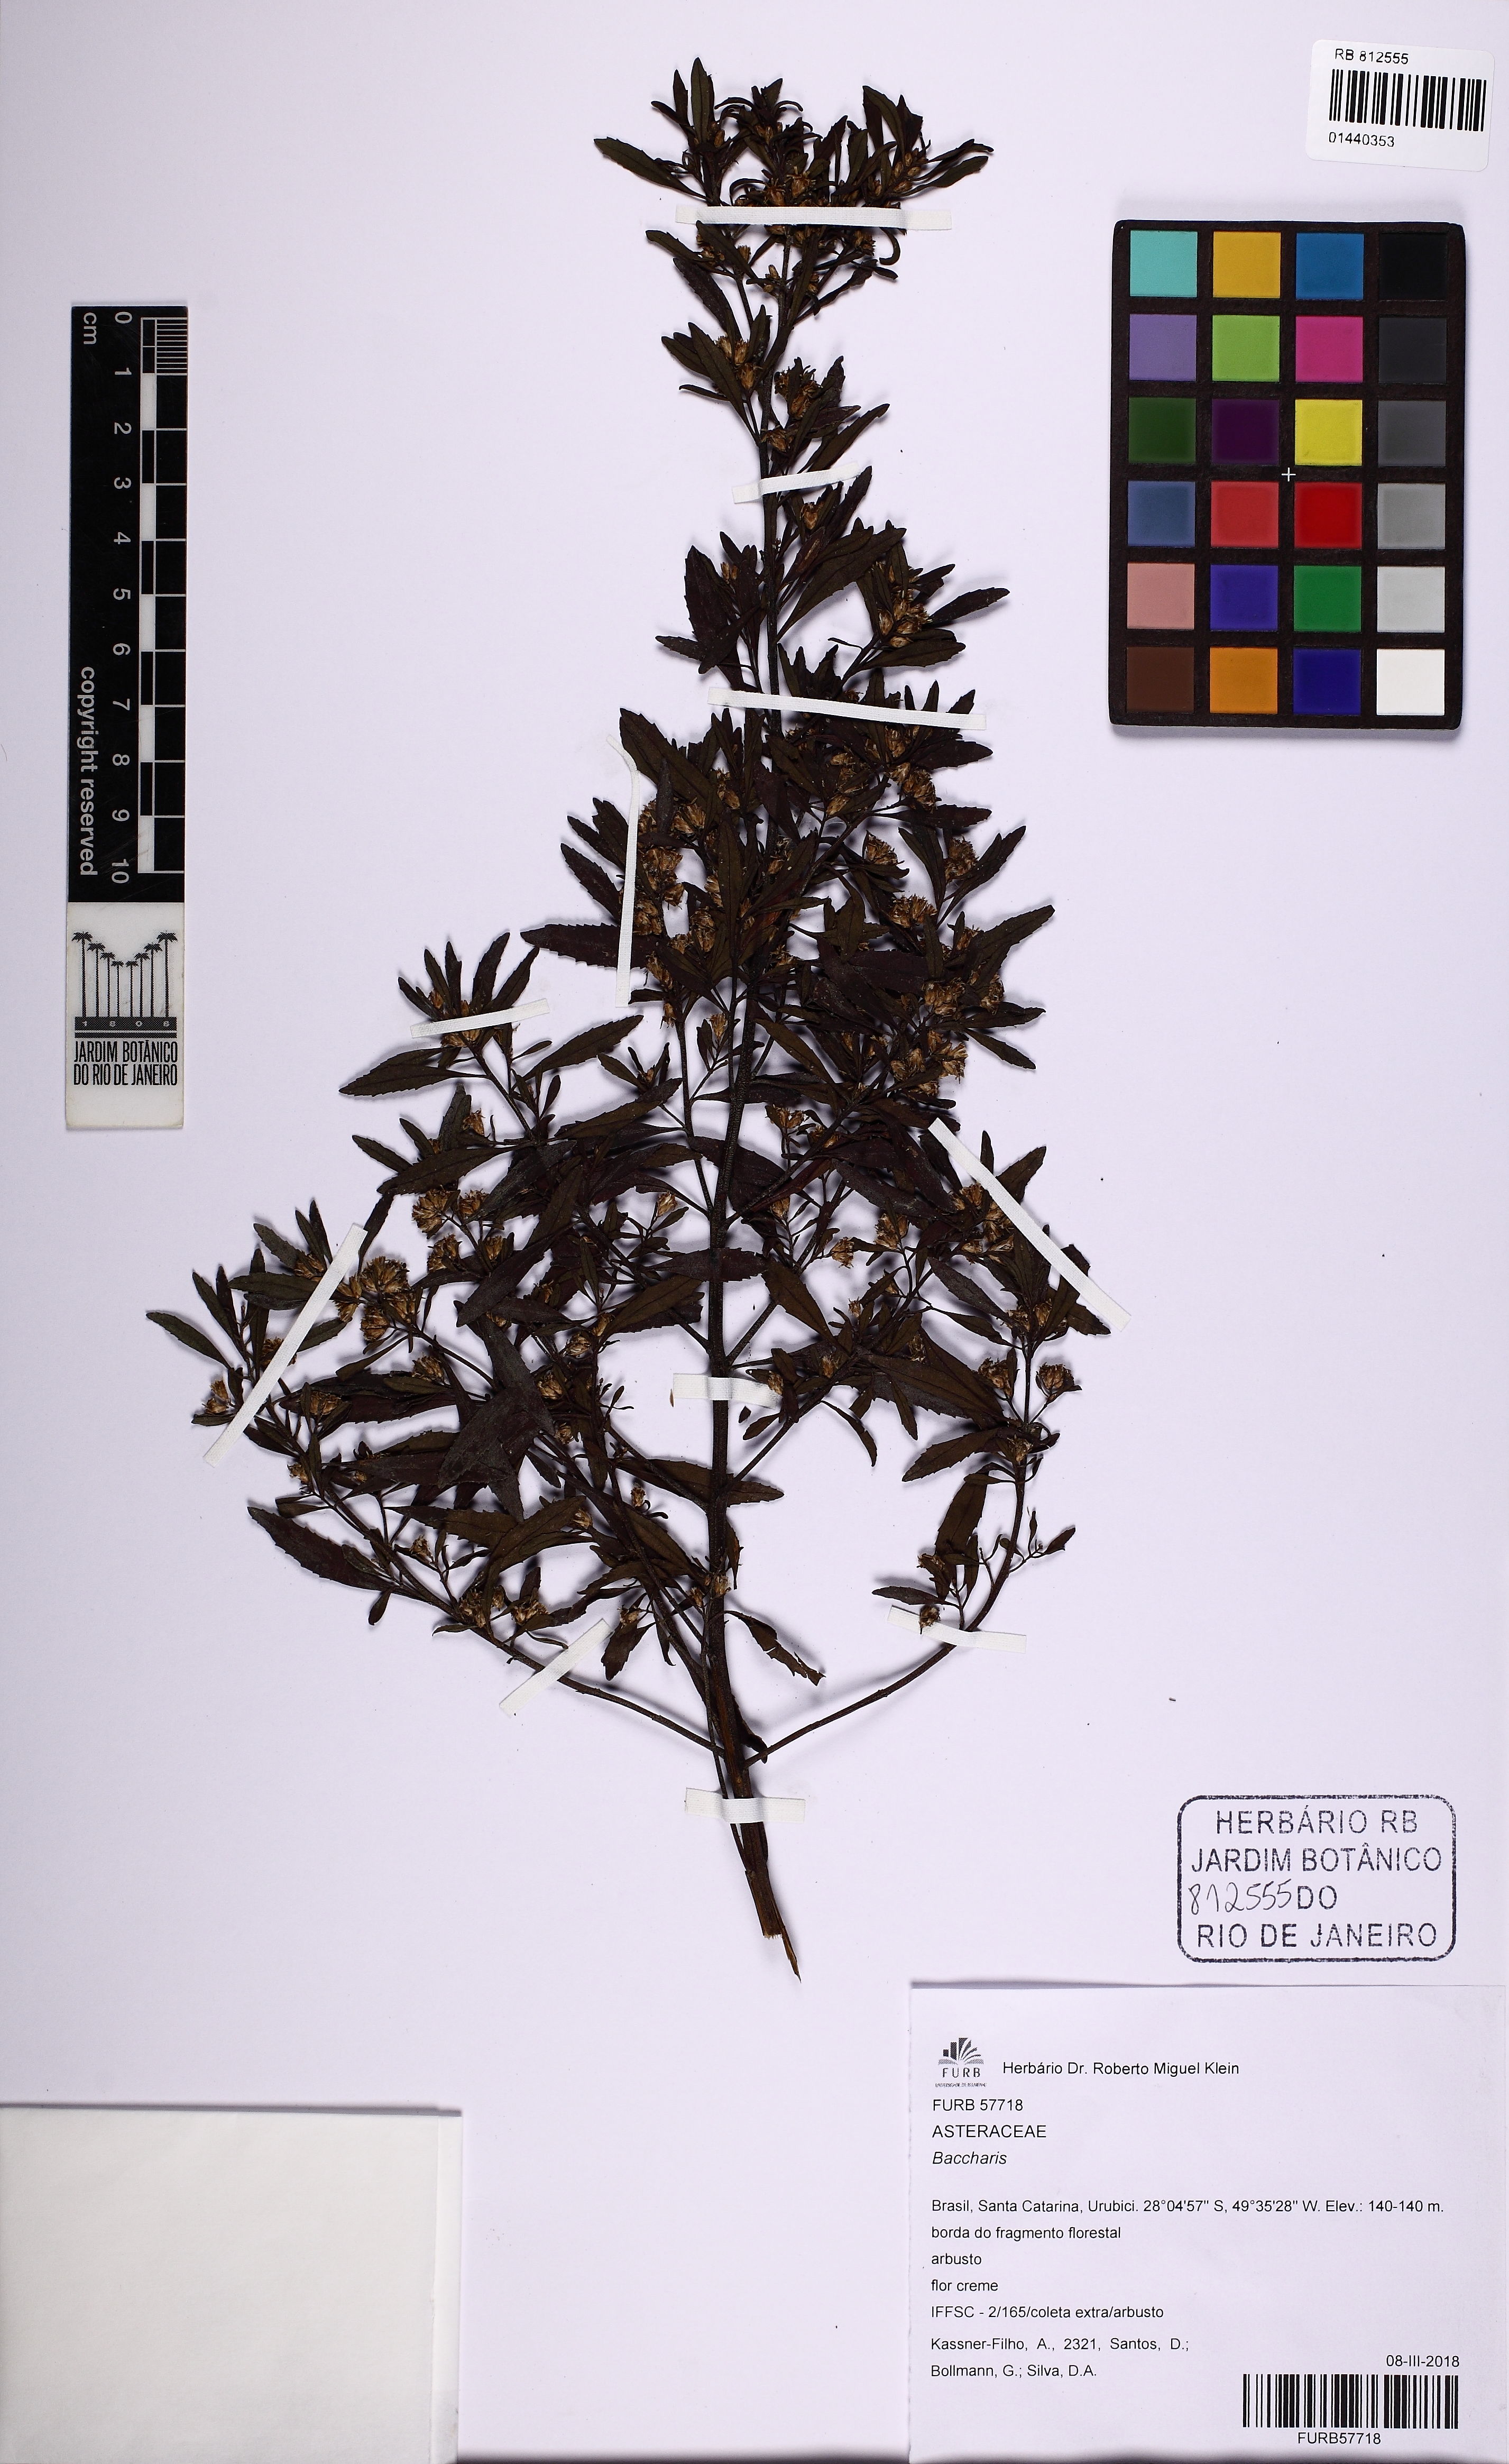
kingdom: Plantae
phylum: Tracheophyta
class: Magnoliopsida
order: Asterales
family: Asteraceae
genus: Baccharis
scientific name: Baccharis
